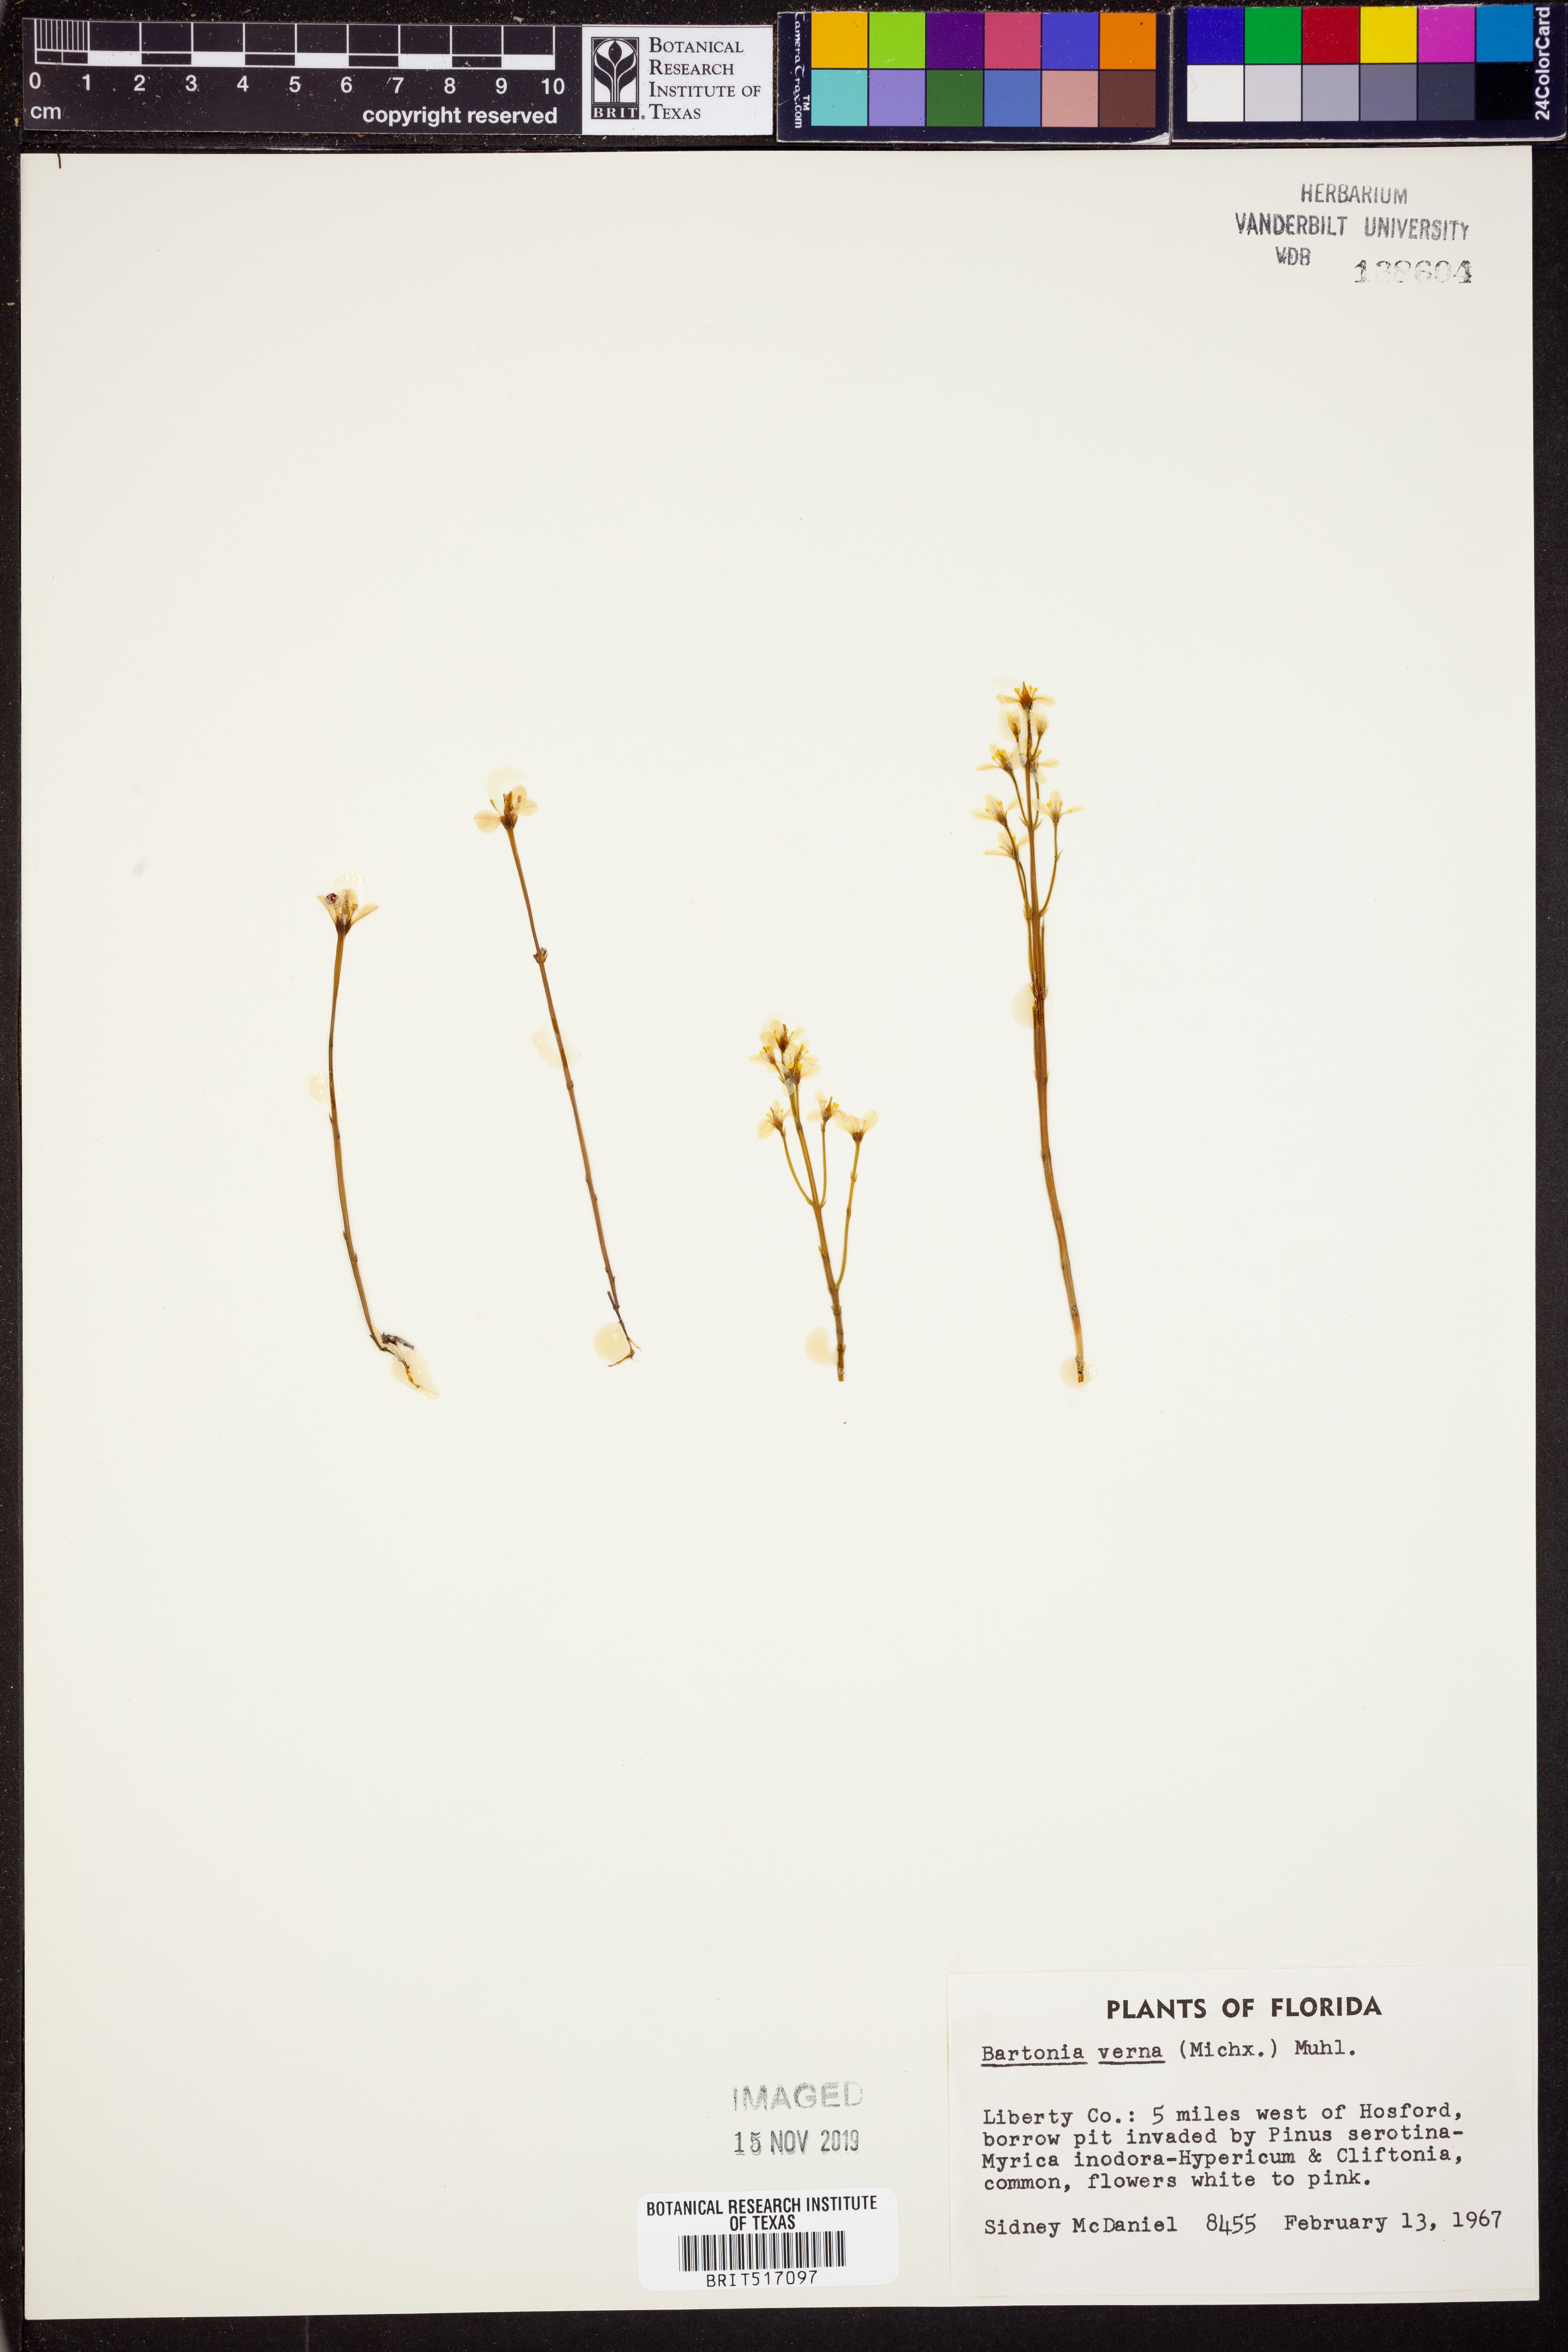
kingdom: Plantae
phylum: Tracheophyta
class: Magnoliopsida
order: Gentianales
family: Gentianaceae
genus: Bartonia
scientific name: Bartonia verna
